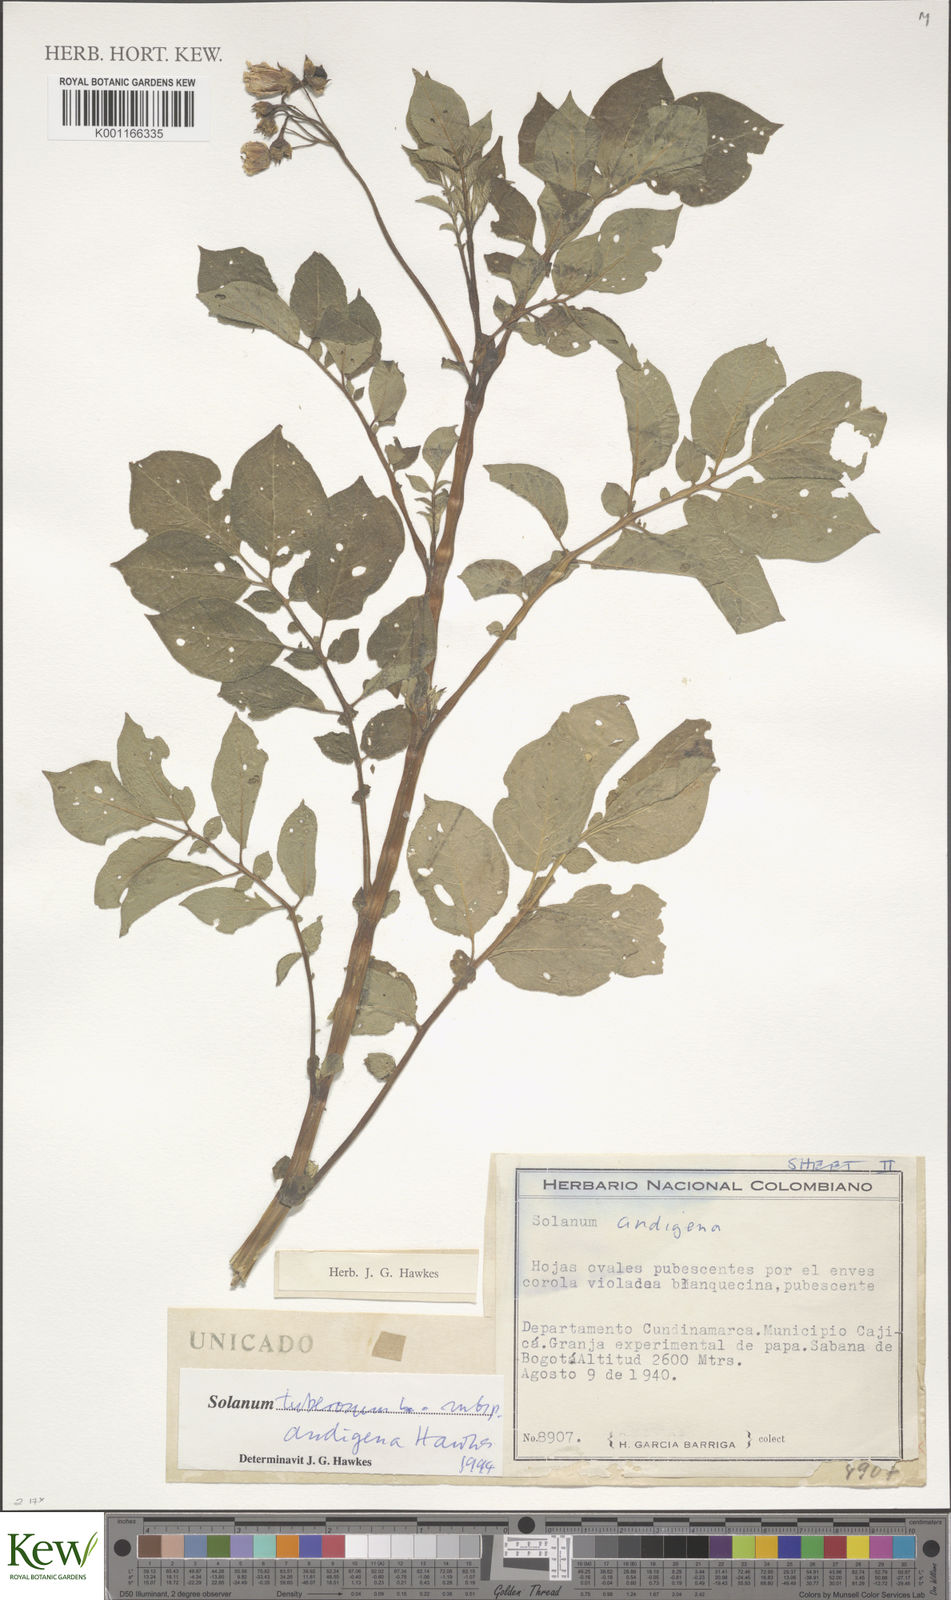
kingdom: Plantae
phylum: Tracheophyta
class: Magnoliopsida
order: Solanales
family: Solanaceae
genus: Solanum
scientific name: Solanum tuberosum
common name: Potato
